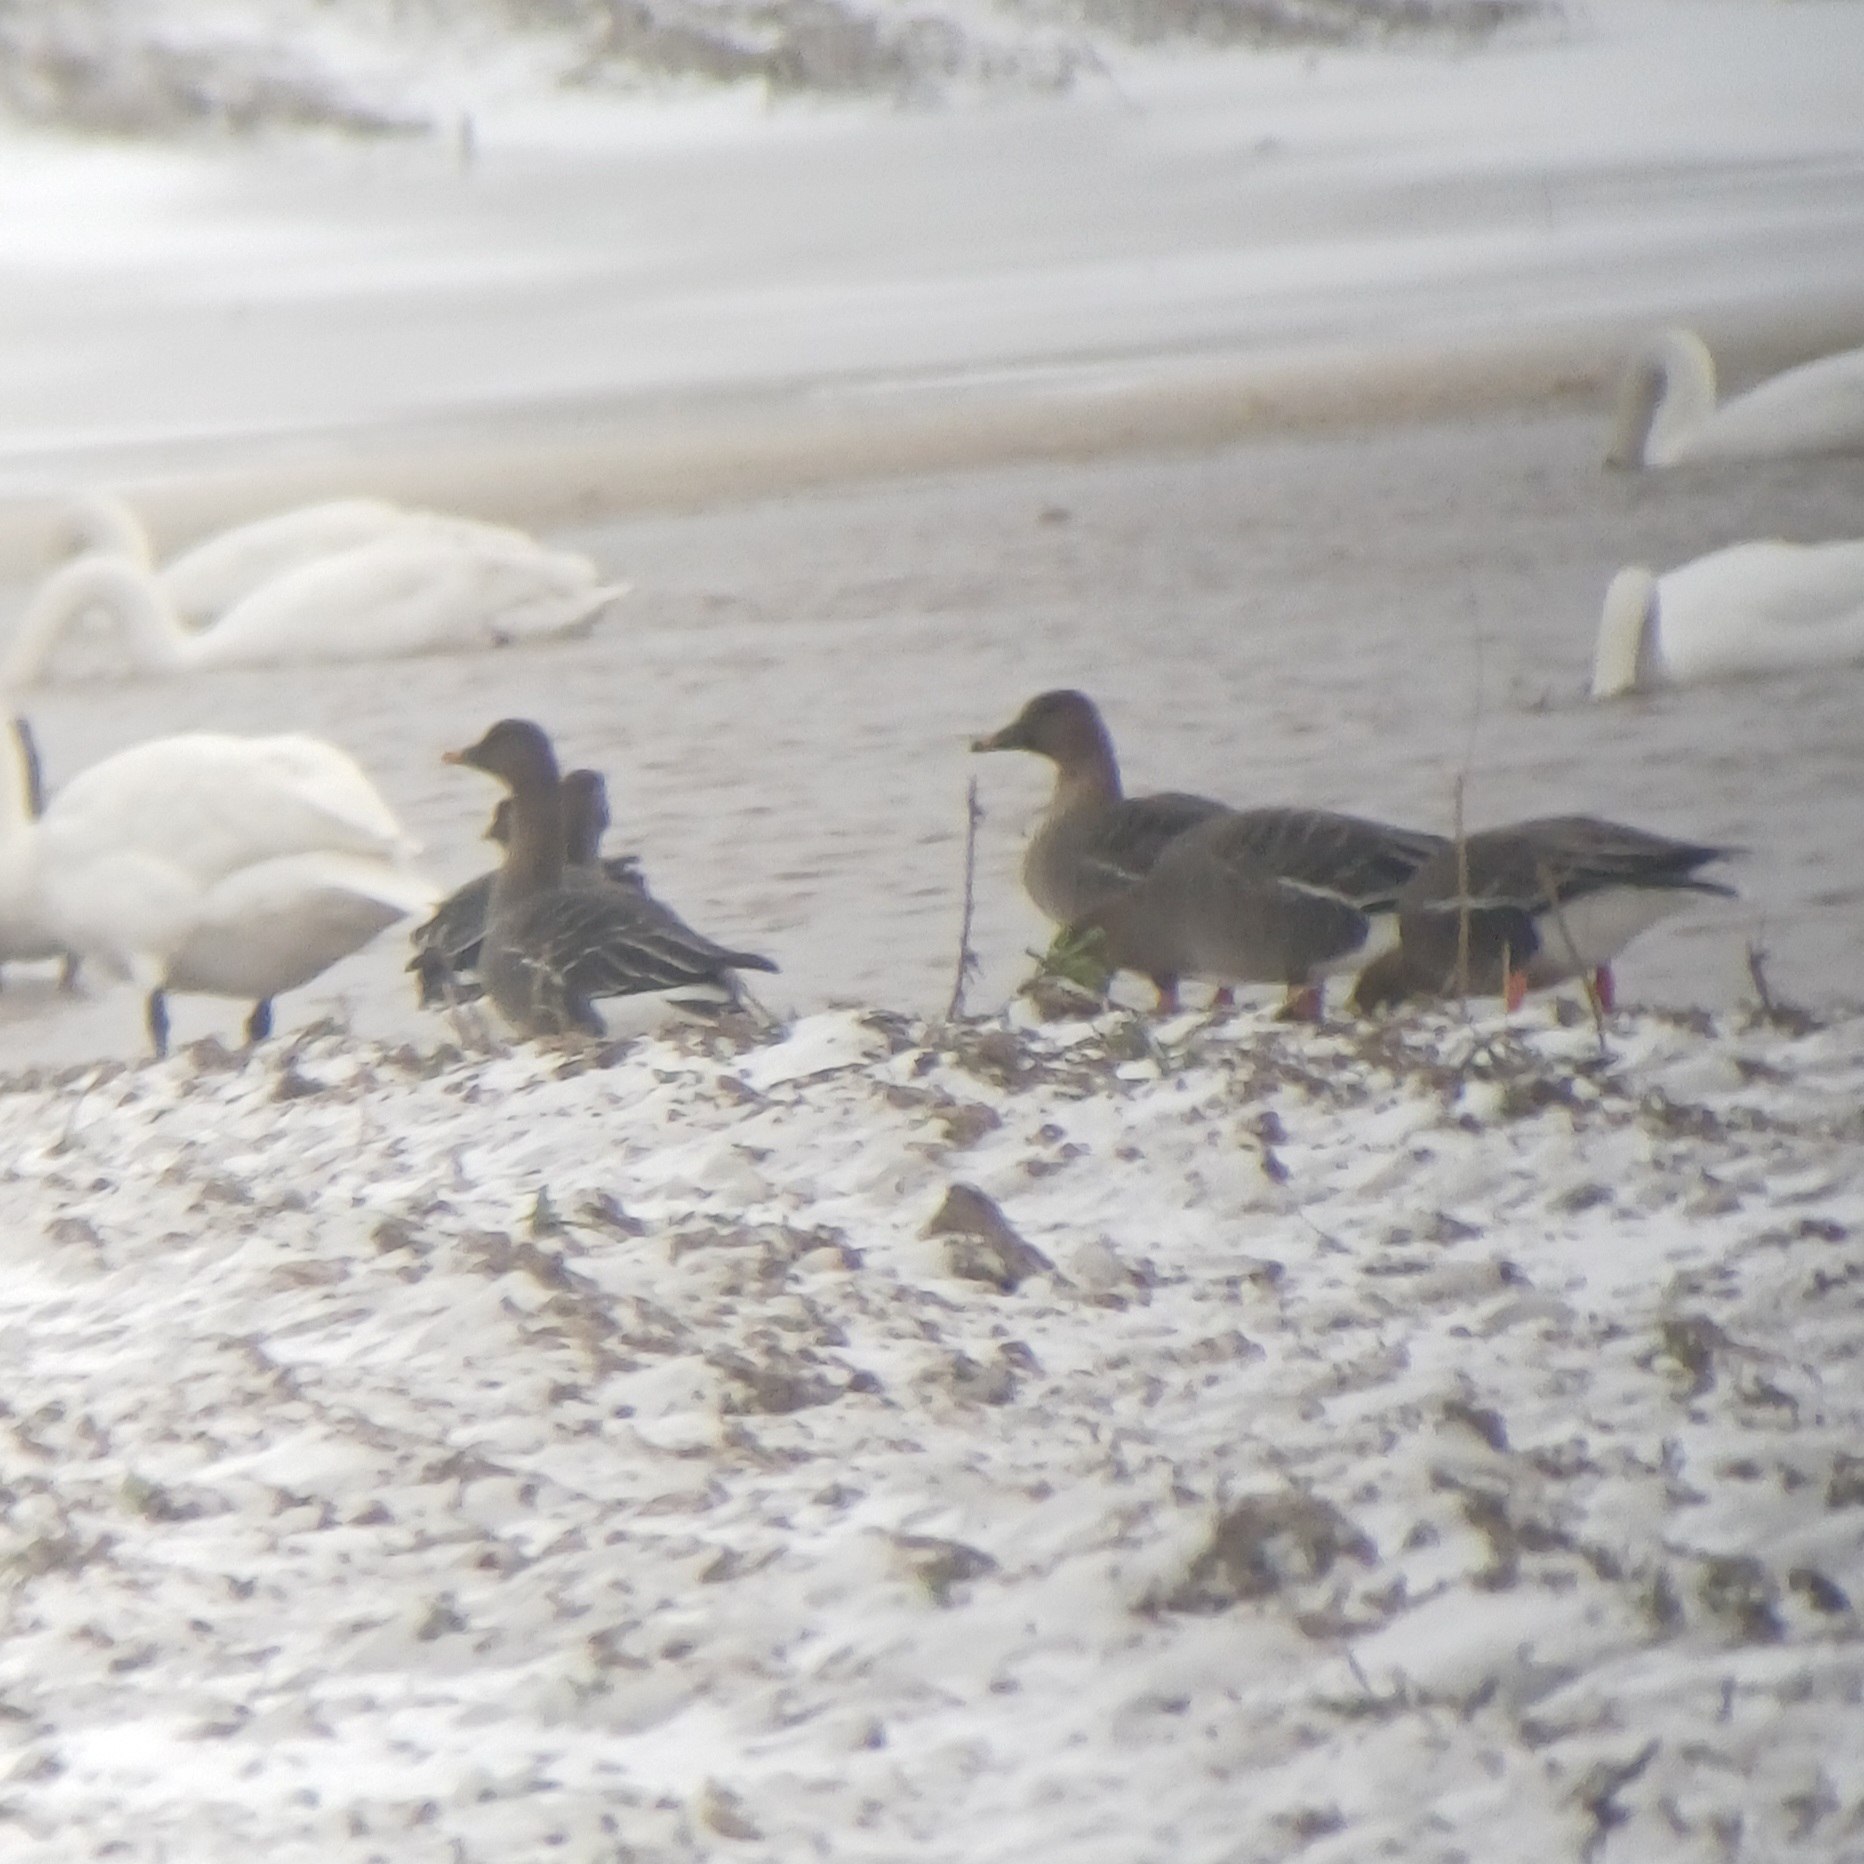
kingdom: Animalia
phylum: Chordata
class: Aves
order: Anseriformes
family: Anatidae
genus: Anser
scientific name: Anser serrirostris
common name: Tundrasædgås
